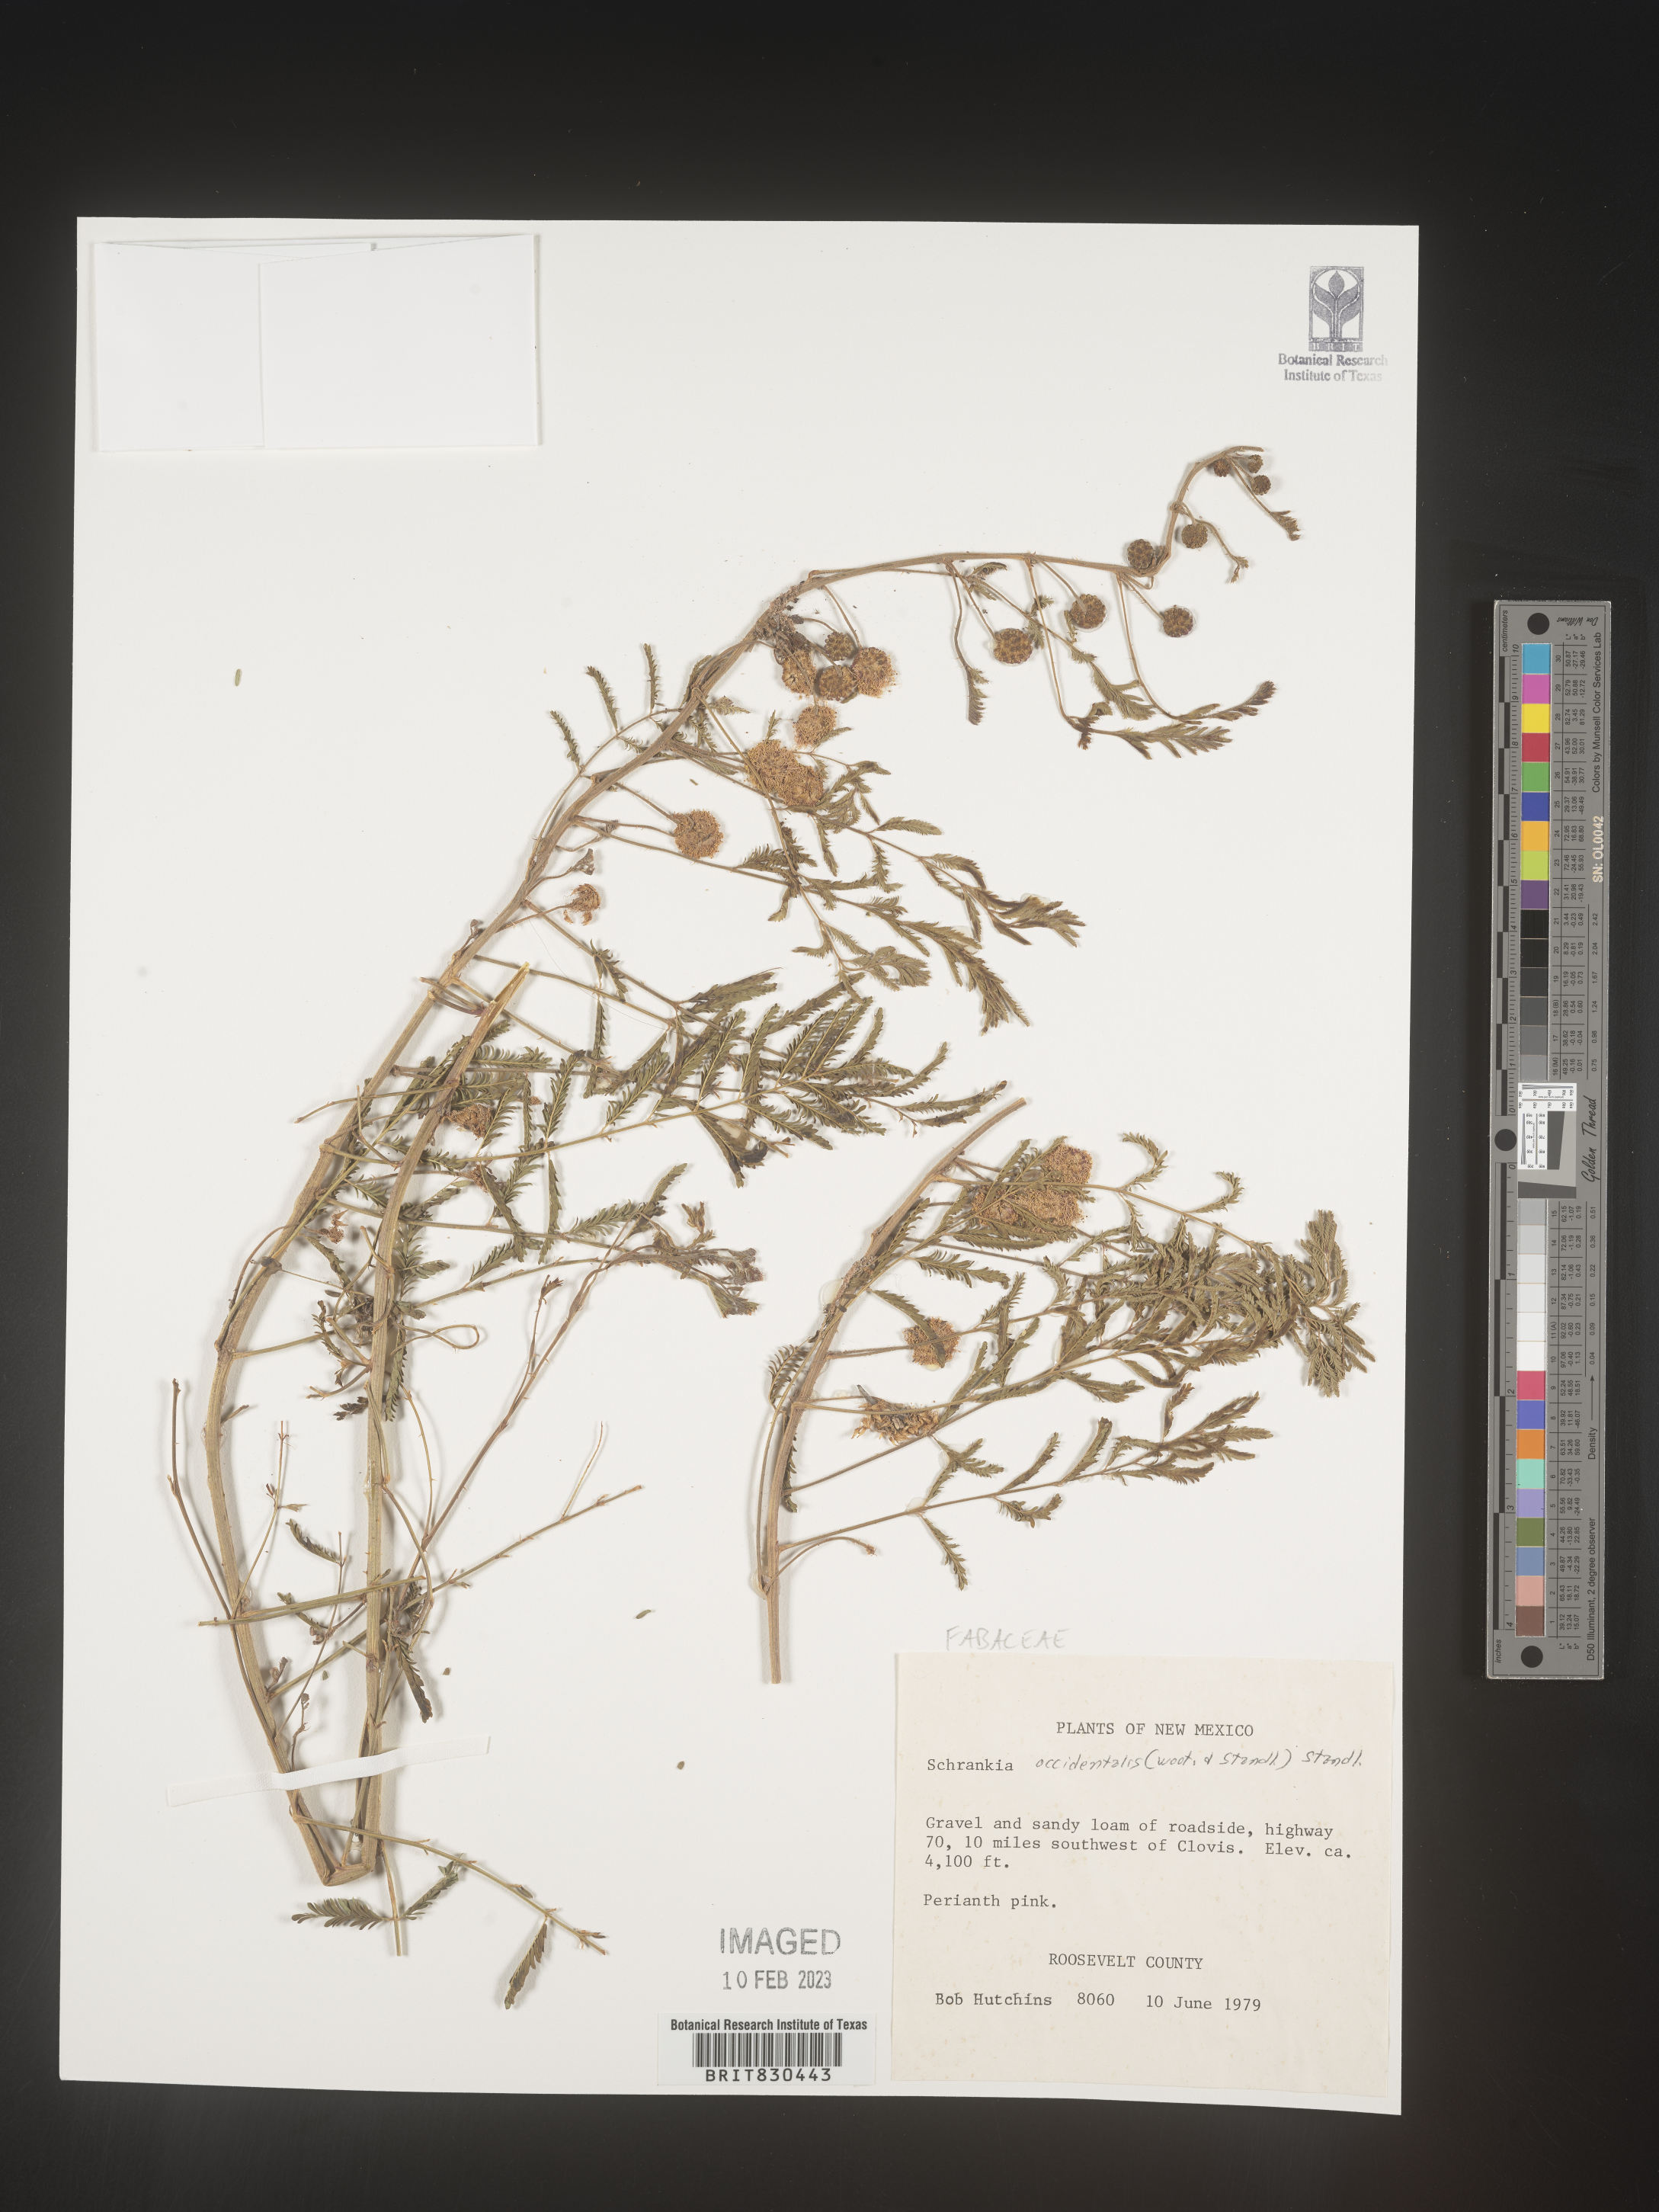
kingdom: Plantae
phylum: Tracheophyta
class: Magnoliopsida
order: Fabales
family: Fabaceae
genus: Mimosa
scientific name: Mimosa
